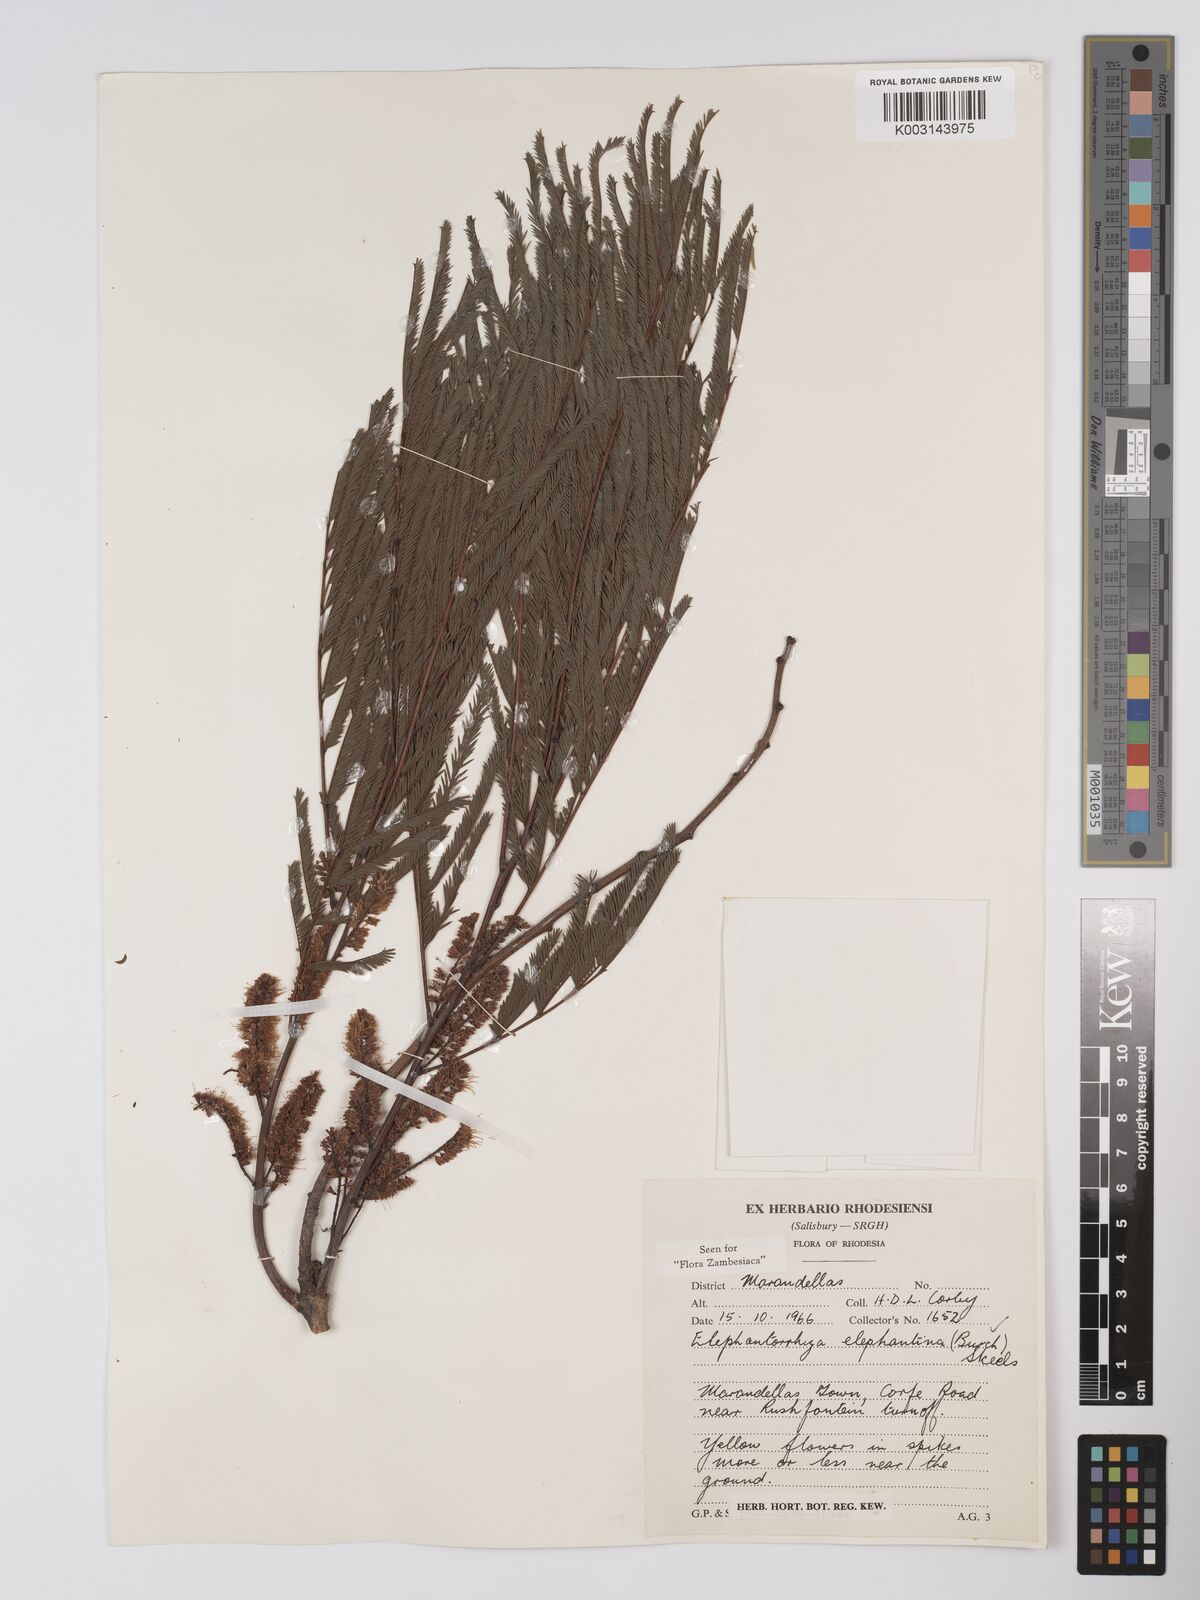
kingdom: Plantae
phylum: Tracheophyta
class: Magnoliopsida
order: Fabales
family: Fabaceae
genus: Elephantorrhiza
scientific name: Elephantorrhiza elephantina
